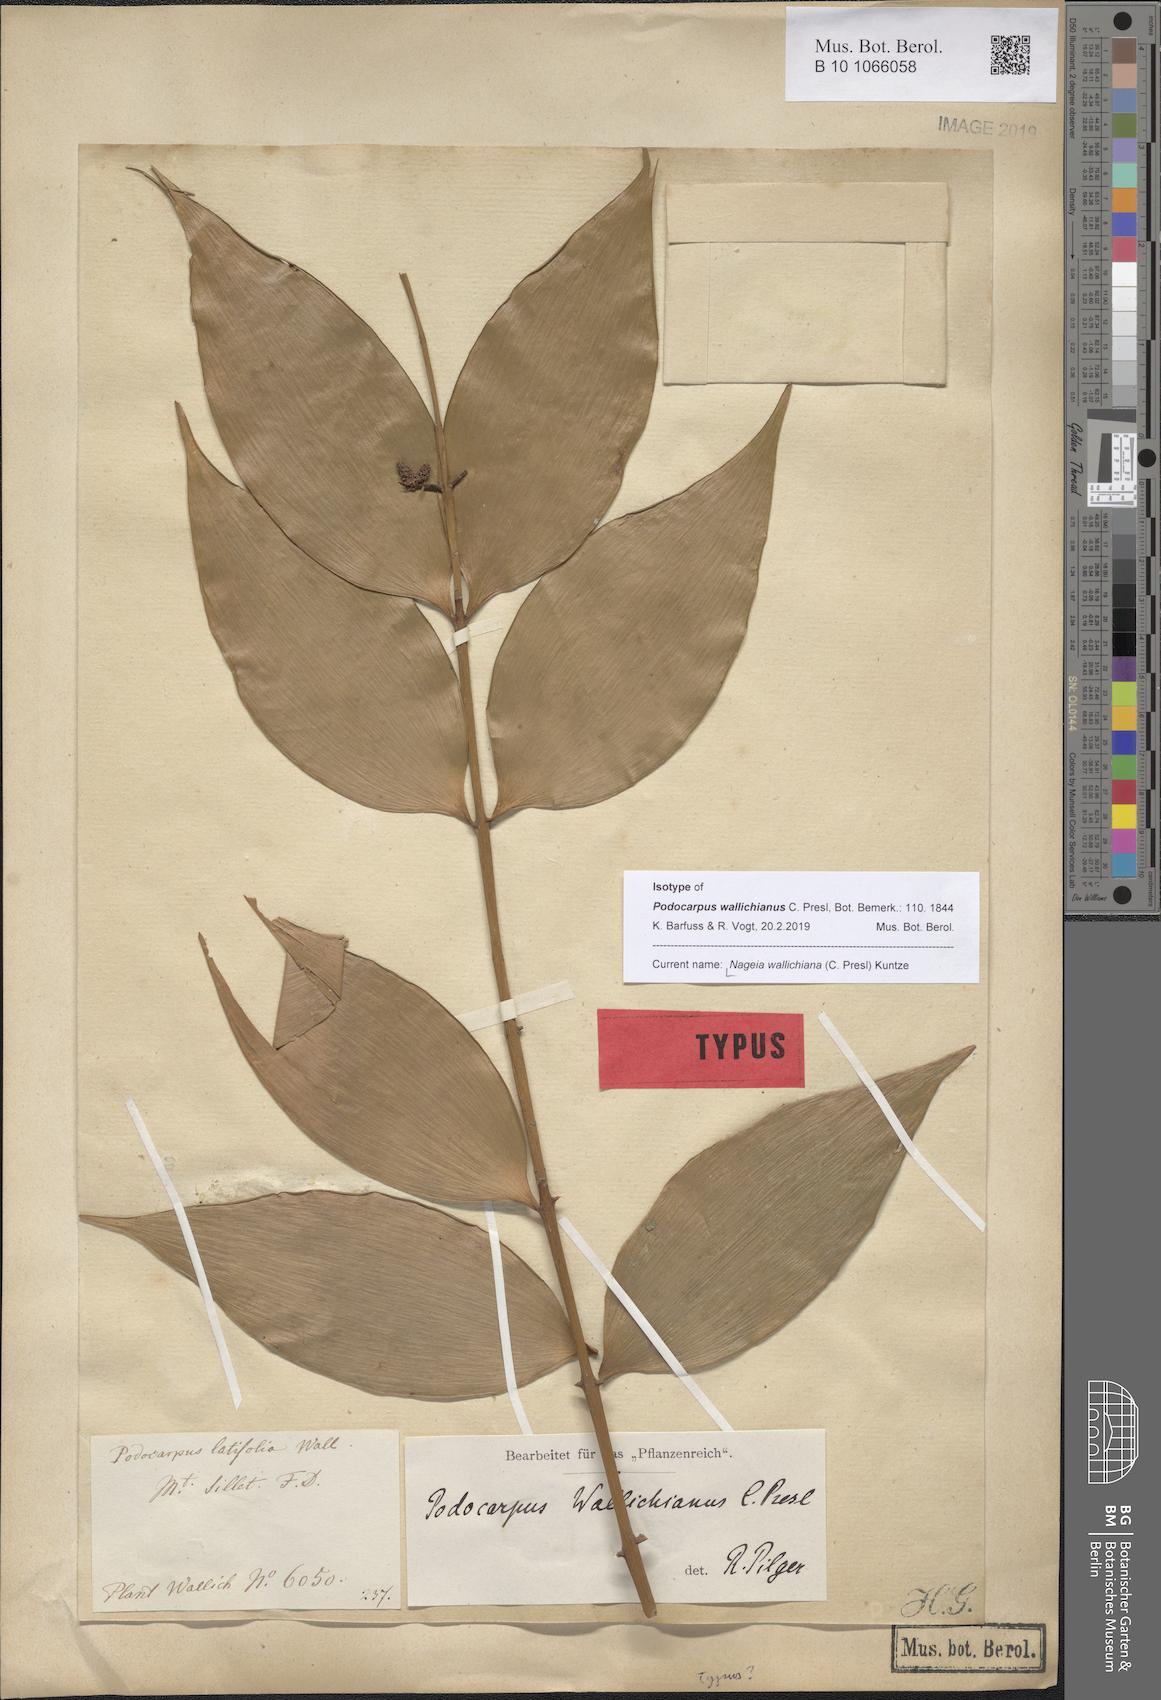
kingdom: Plantae
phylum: Tracheophyta
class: Pinopsida
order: Pinales
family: Podocarpaceae
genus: Nageia
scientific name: Nageia wallichiana
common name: Brown's-pine
